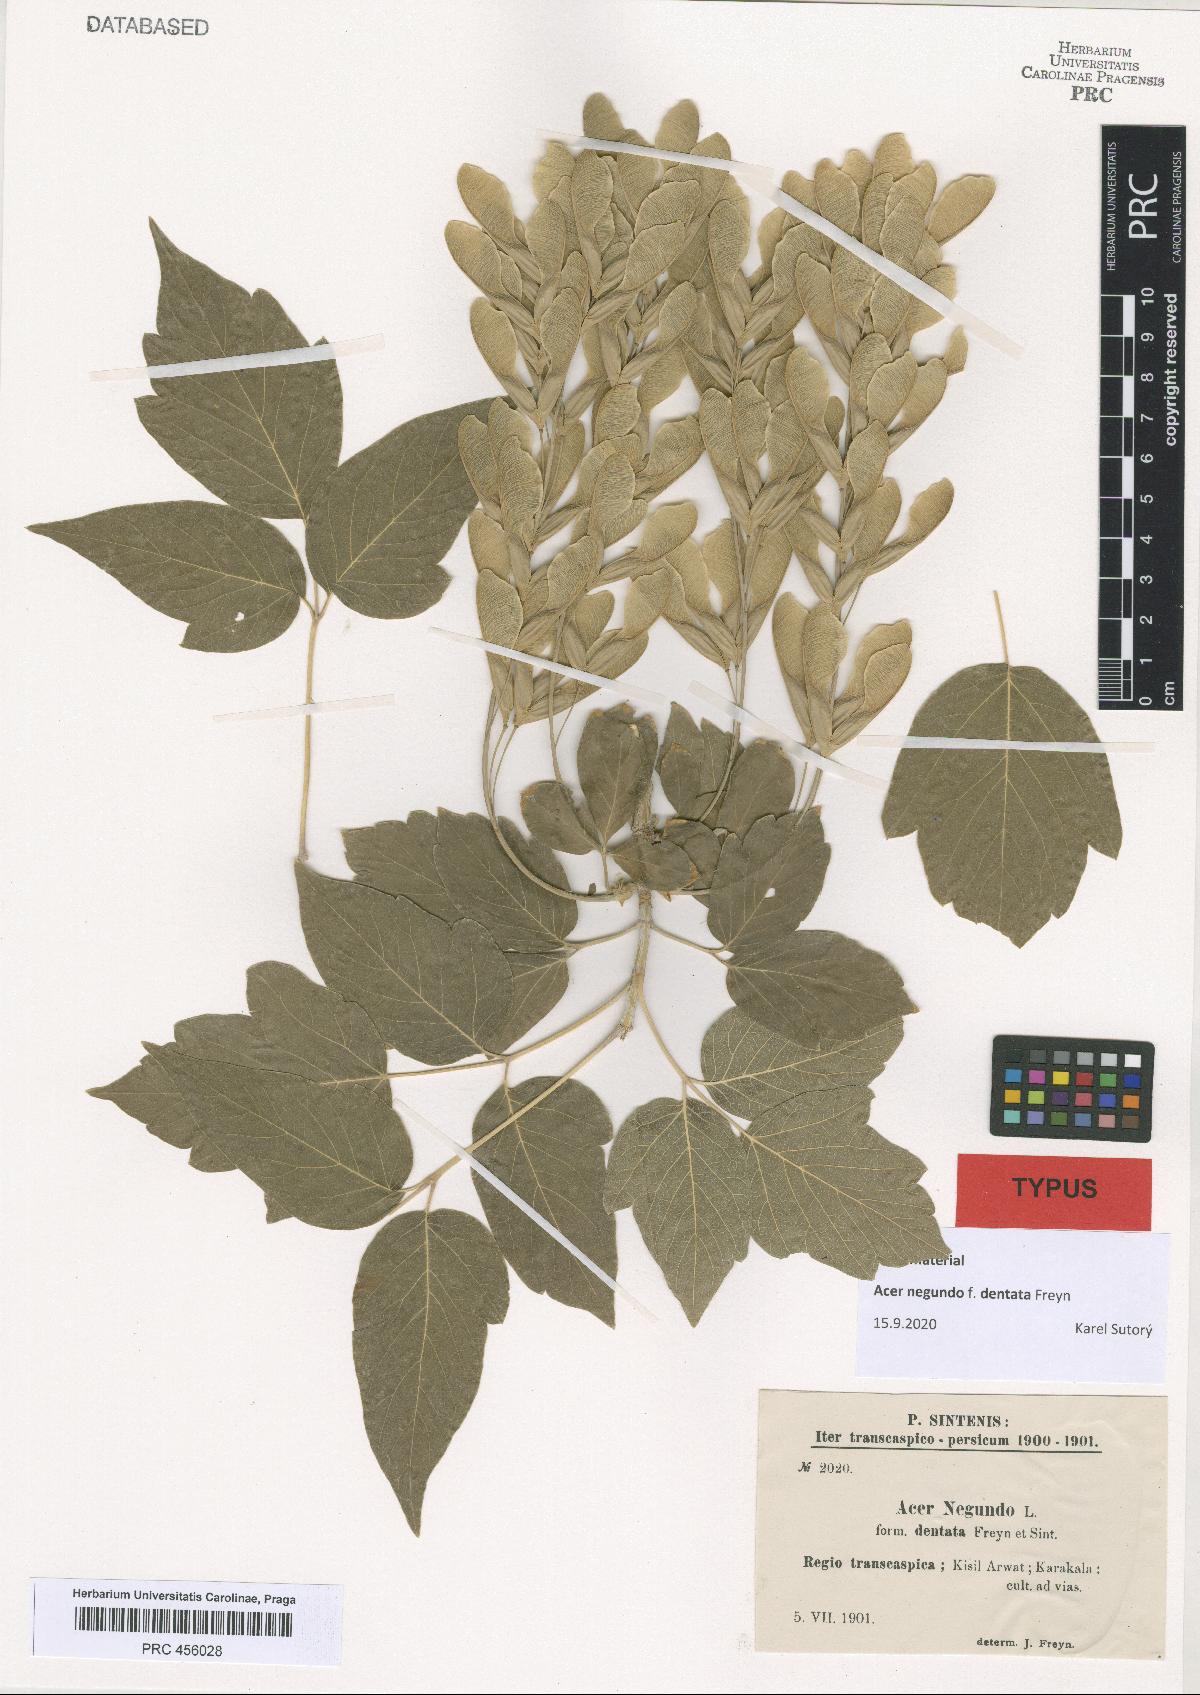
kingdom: Plantae
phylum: Tracheophyta
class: Magnoliopsida
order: Sapindales
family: Sapindaceae
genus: Acer
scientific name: Acer negundo
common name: Ashleaf maple
